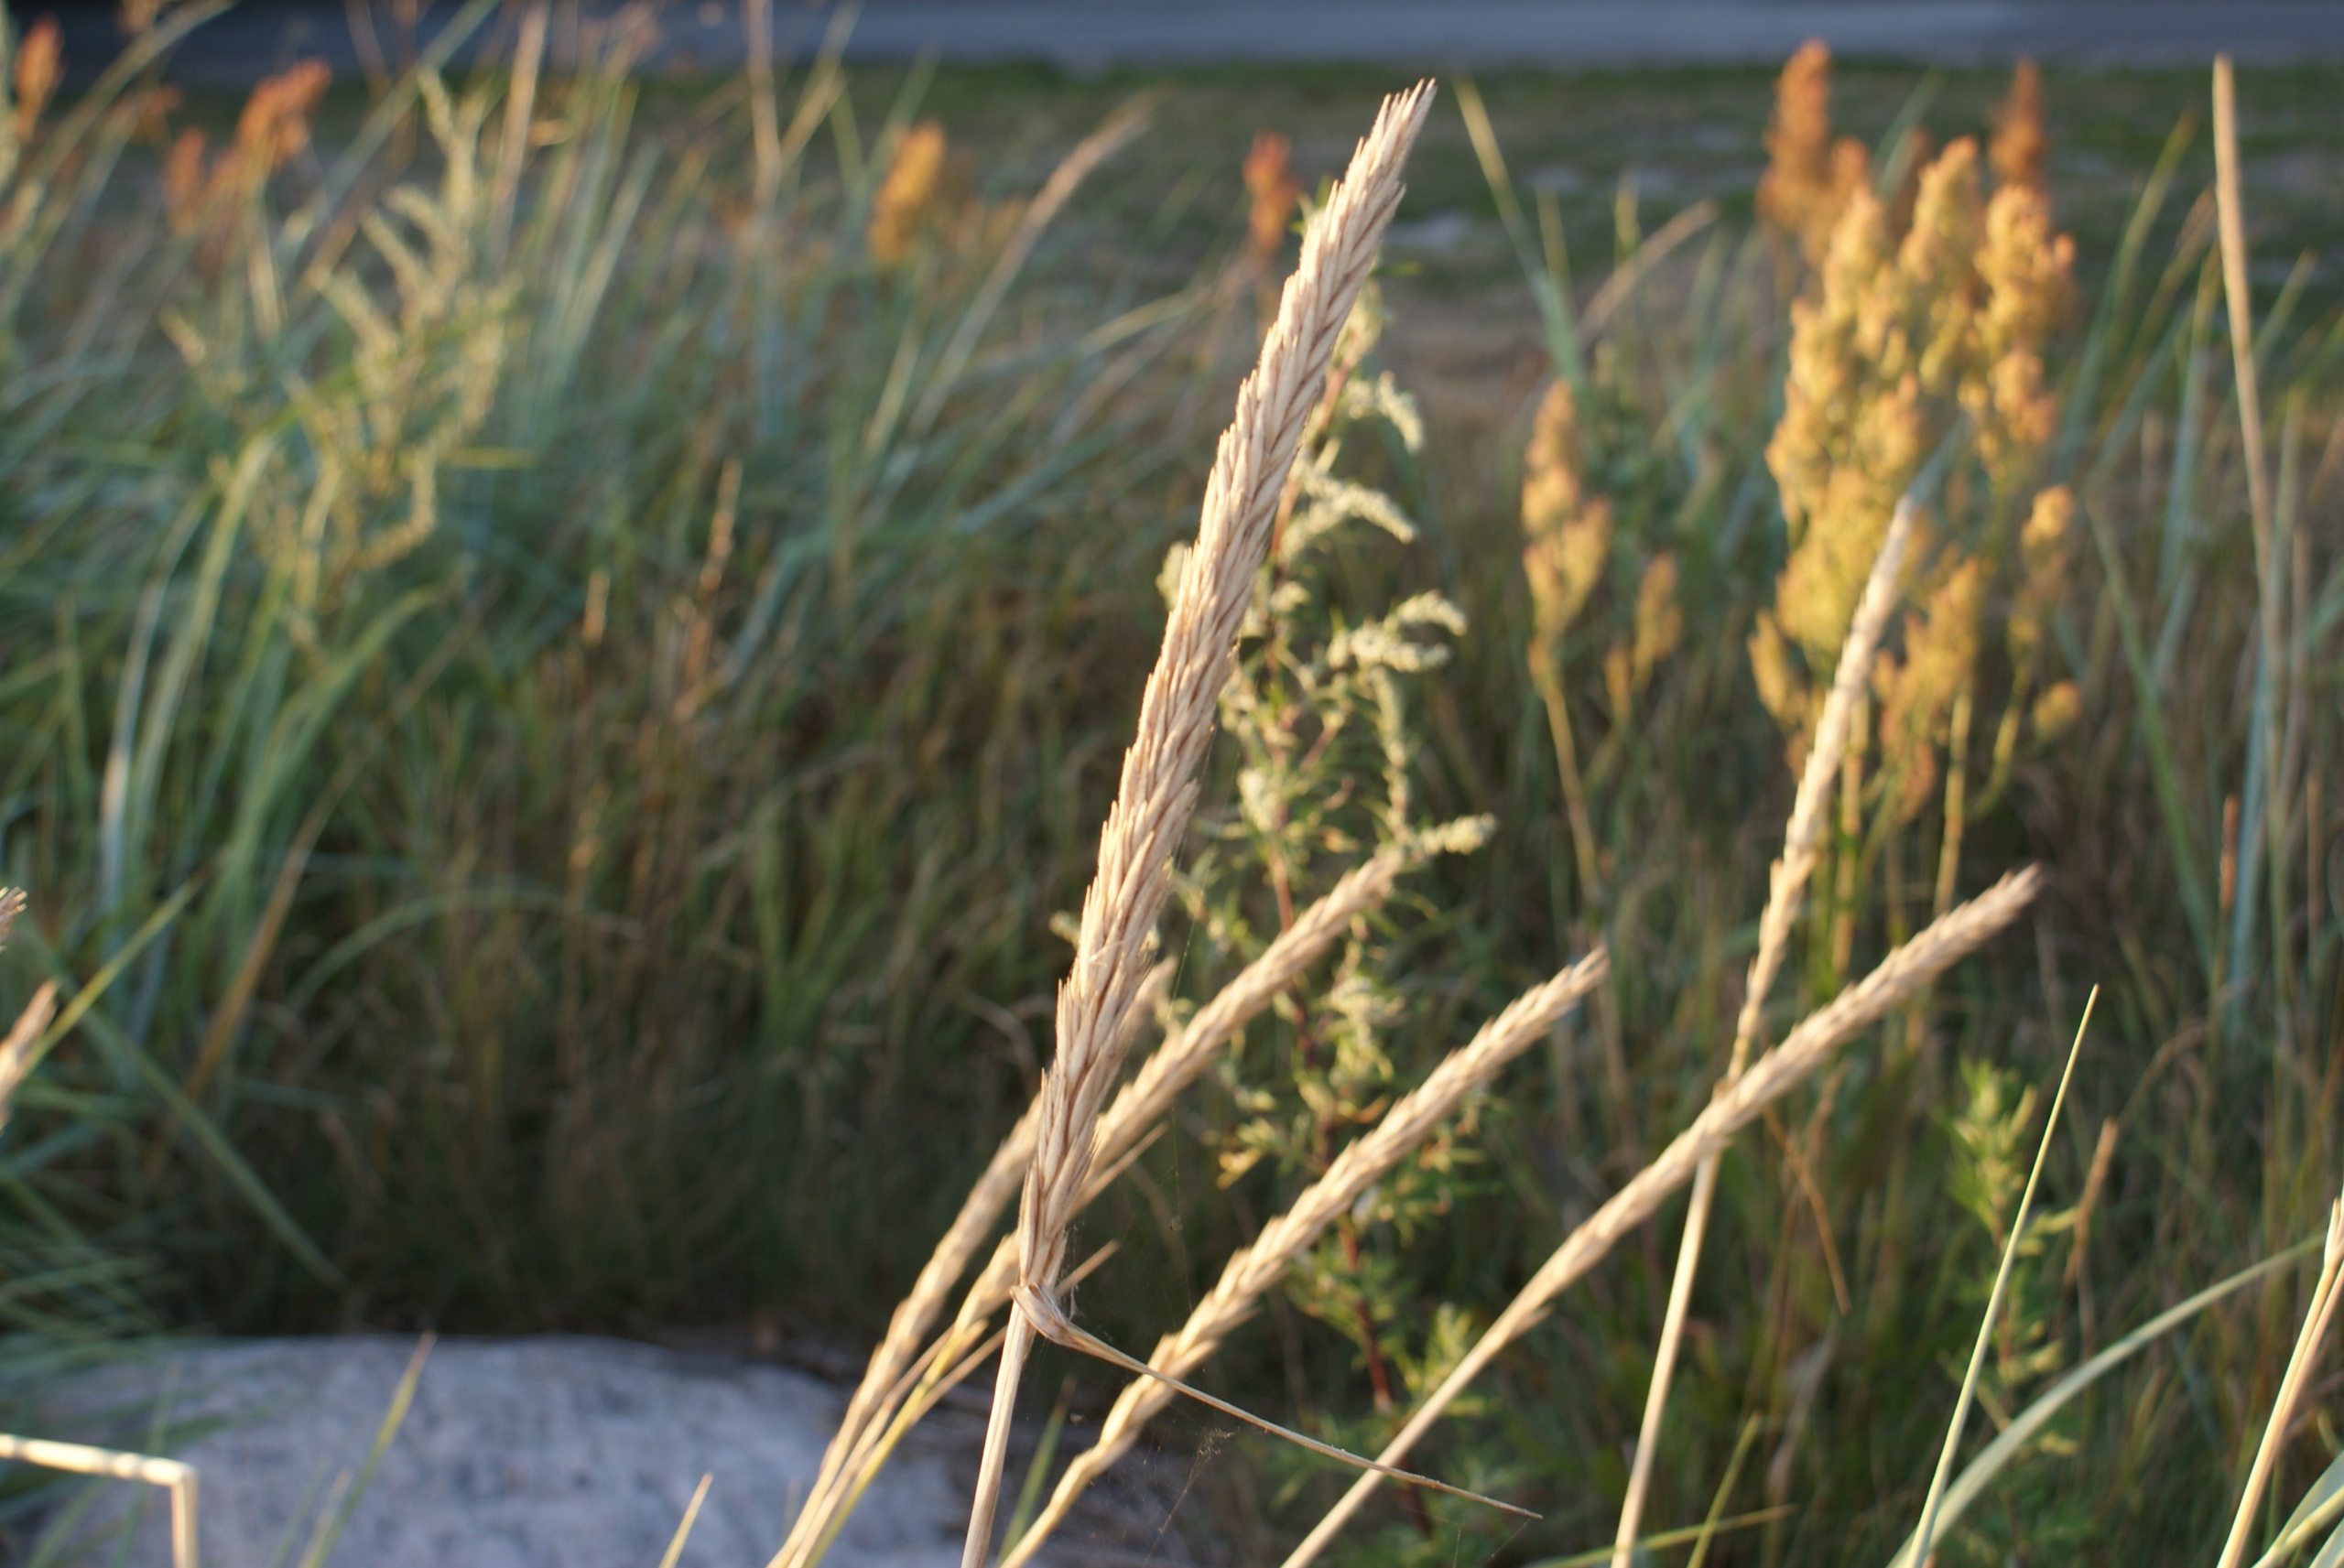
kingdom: Plantae
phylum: Tracheophyta
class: Liliopsida
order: Poales
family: Poaceae
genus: Calamagrostis
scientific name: Calamagrostis arenaria
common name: Sand-hjælme
